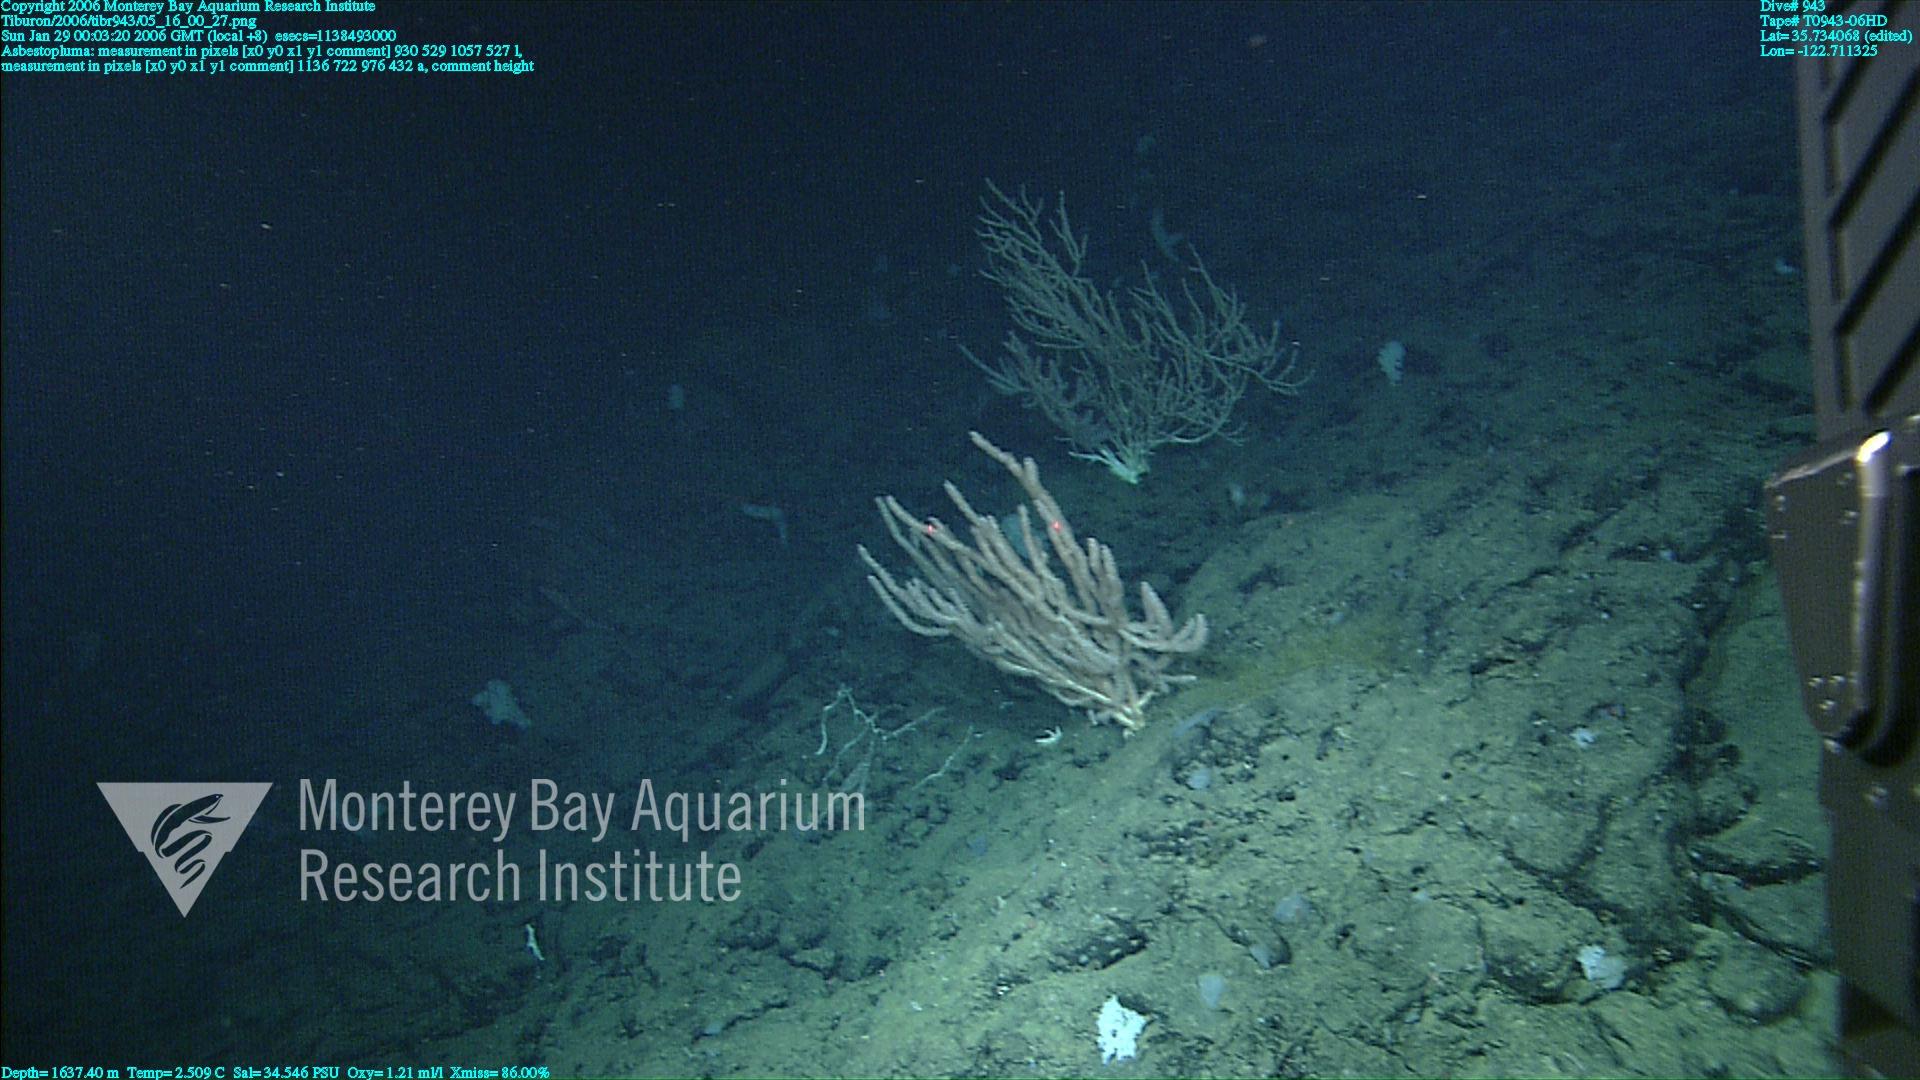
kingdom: Animalia
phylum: Porifera
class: Demospongiae
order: Poecilosclerida
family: Cladorhizidae
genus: Asbestopluma
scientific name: Asbestopluma
